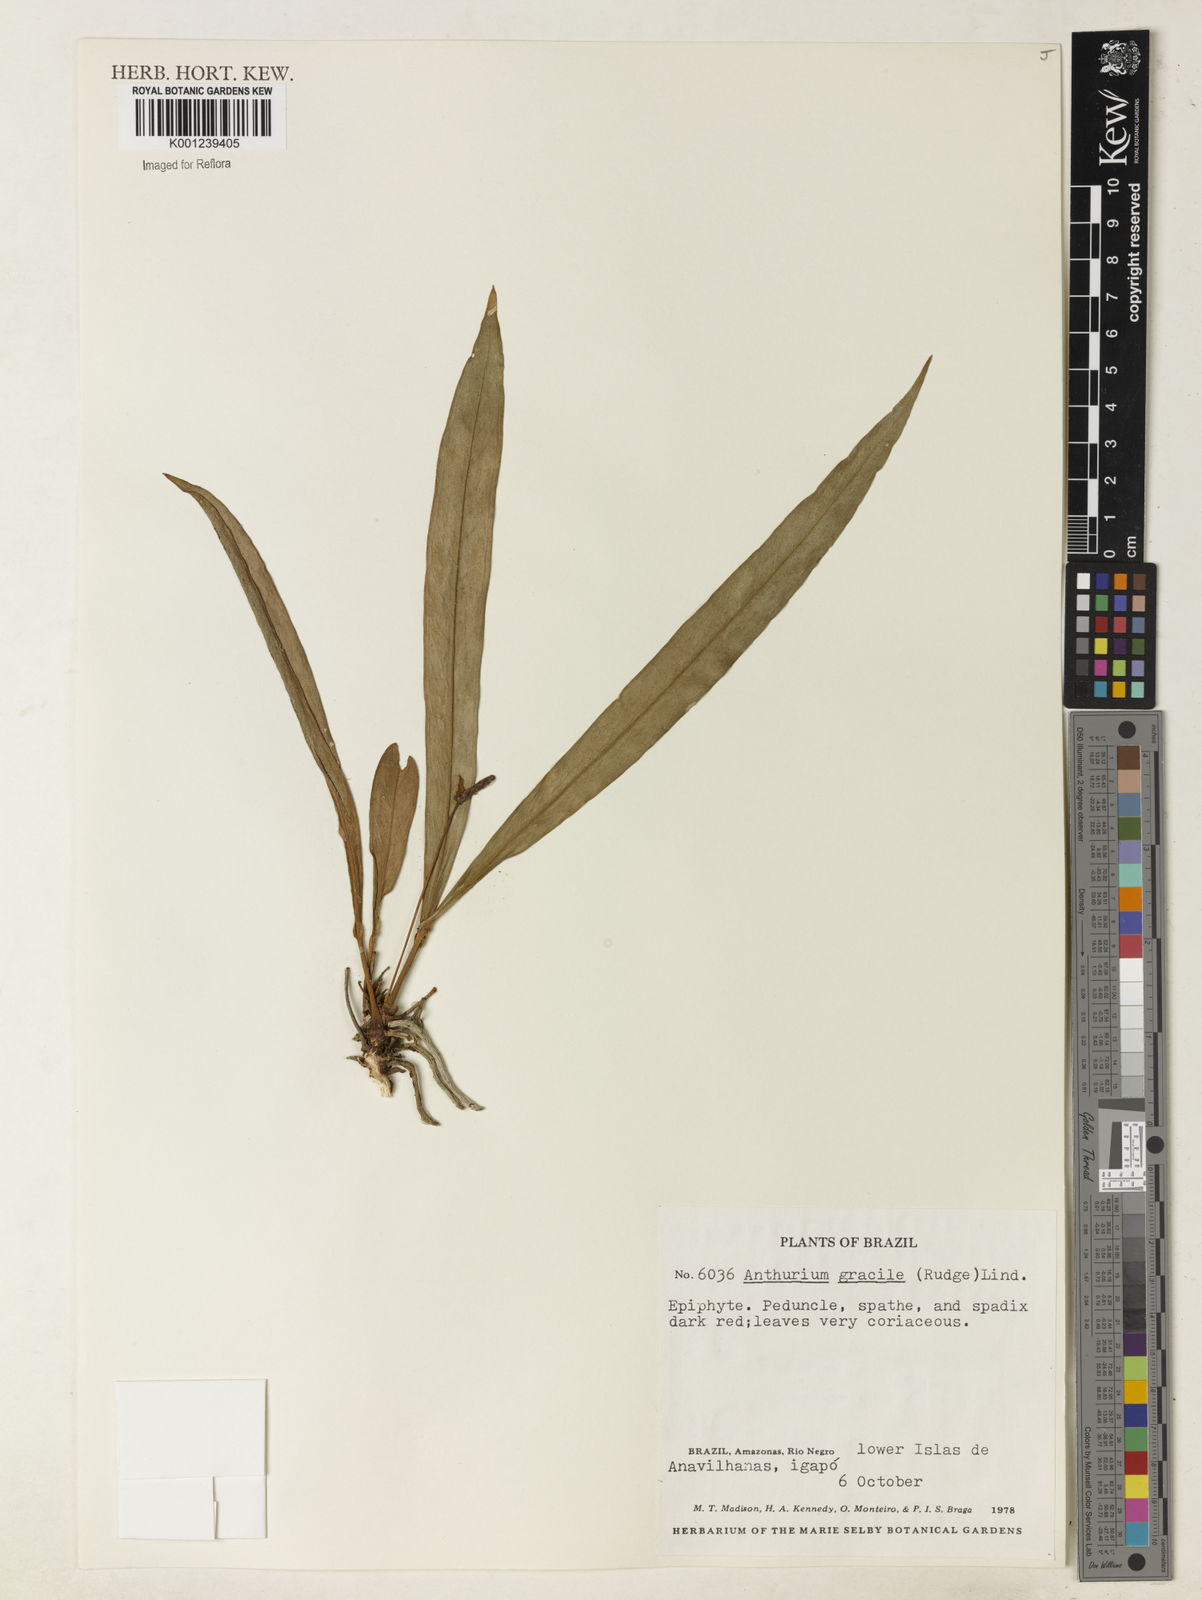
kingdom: Plantae
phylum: Tracheophyta
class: Liliopsida
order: Alismatales
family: Araceae
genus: Anthurium
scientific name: Anthurium gracile
